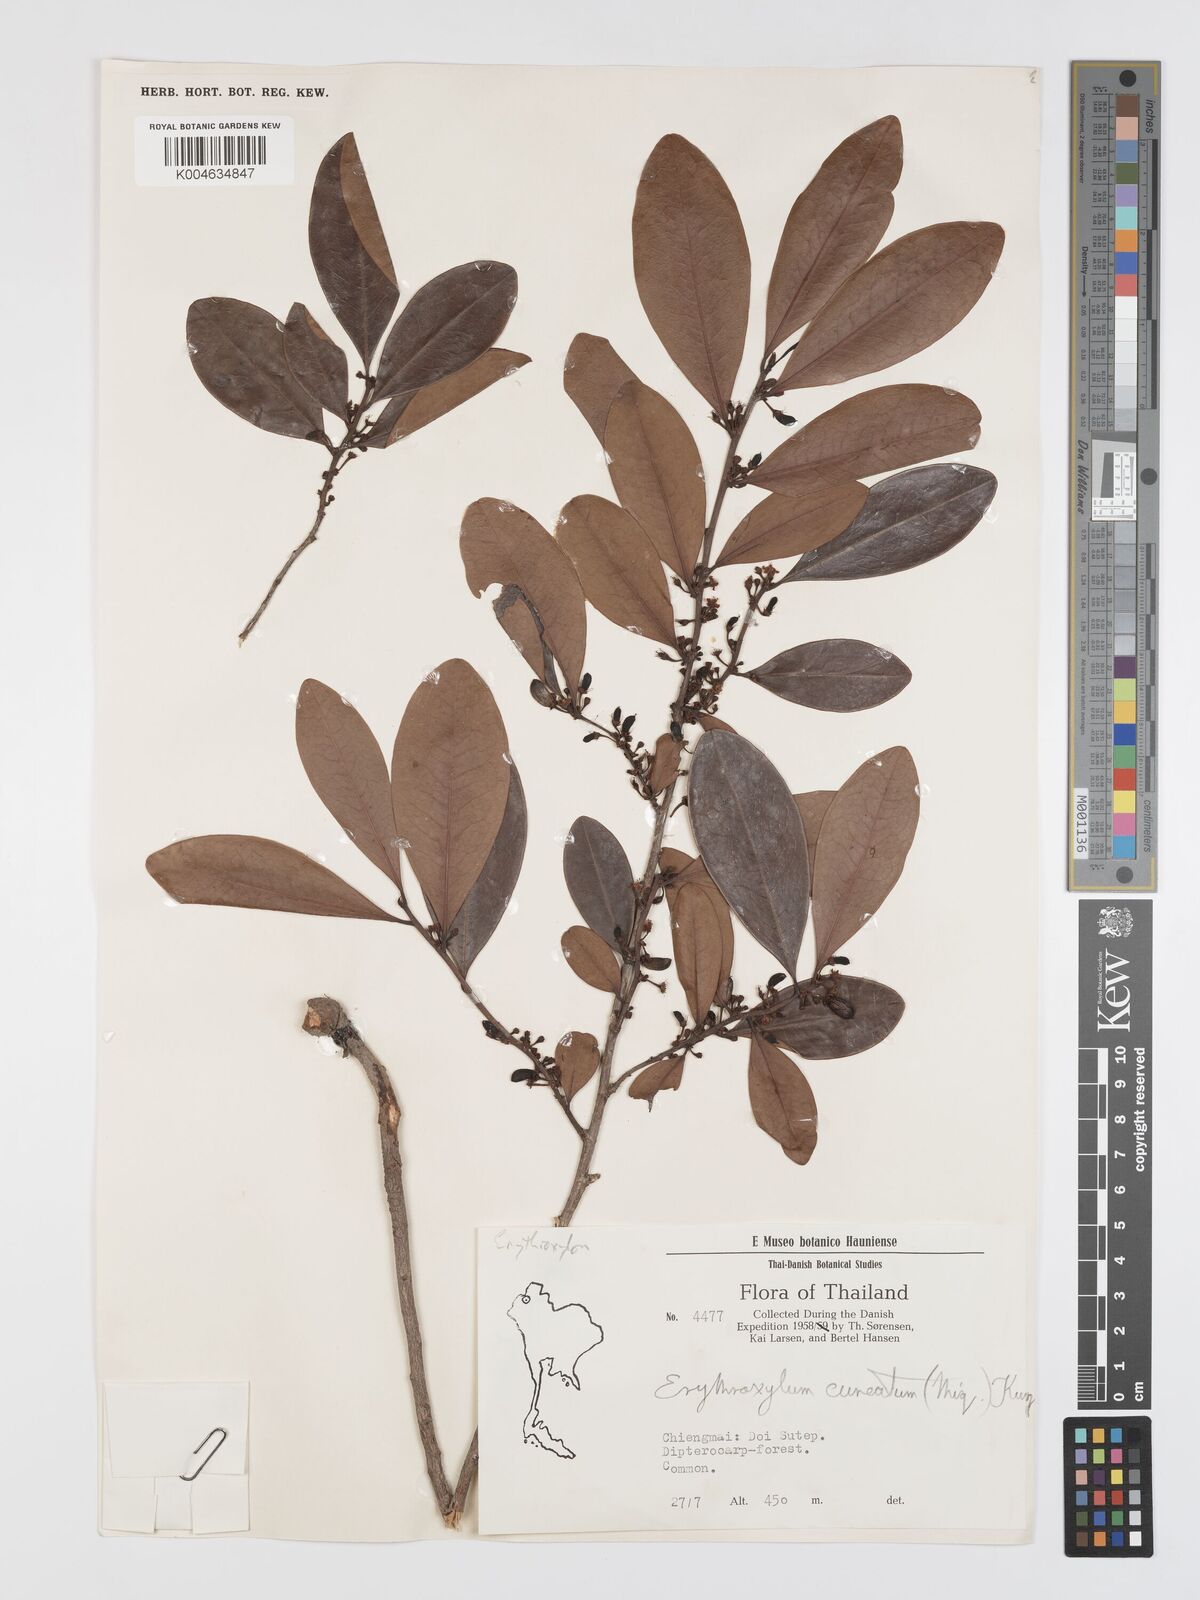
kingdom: Plantae
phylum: Tracheophyta
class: Magnoliopsida
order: Malpighiales
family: Erythroxylaceae
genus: Erythroxylum
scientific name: Erythroxylum cuneatum
